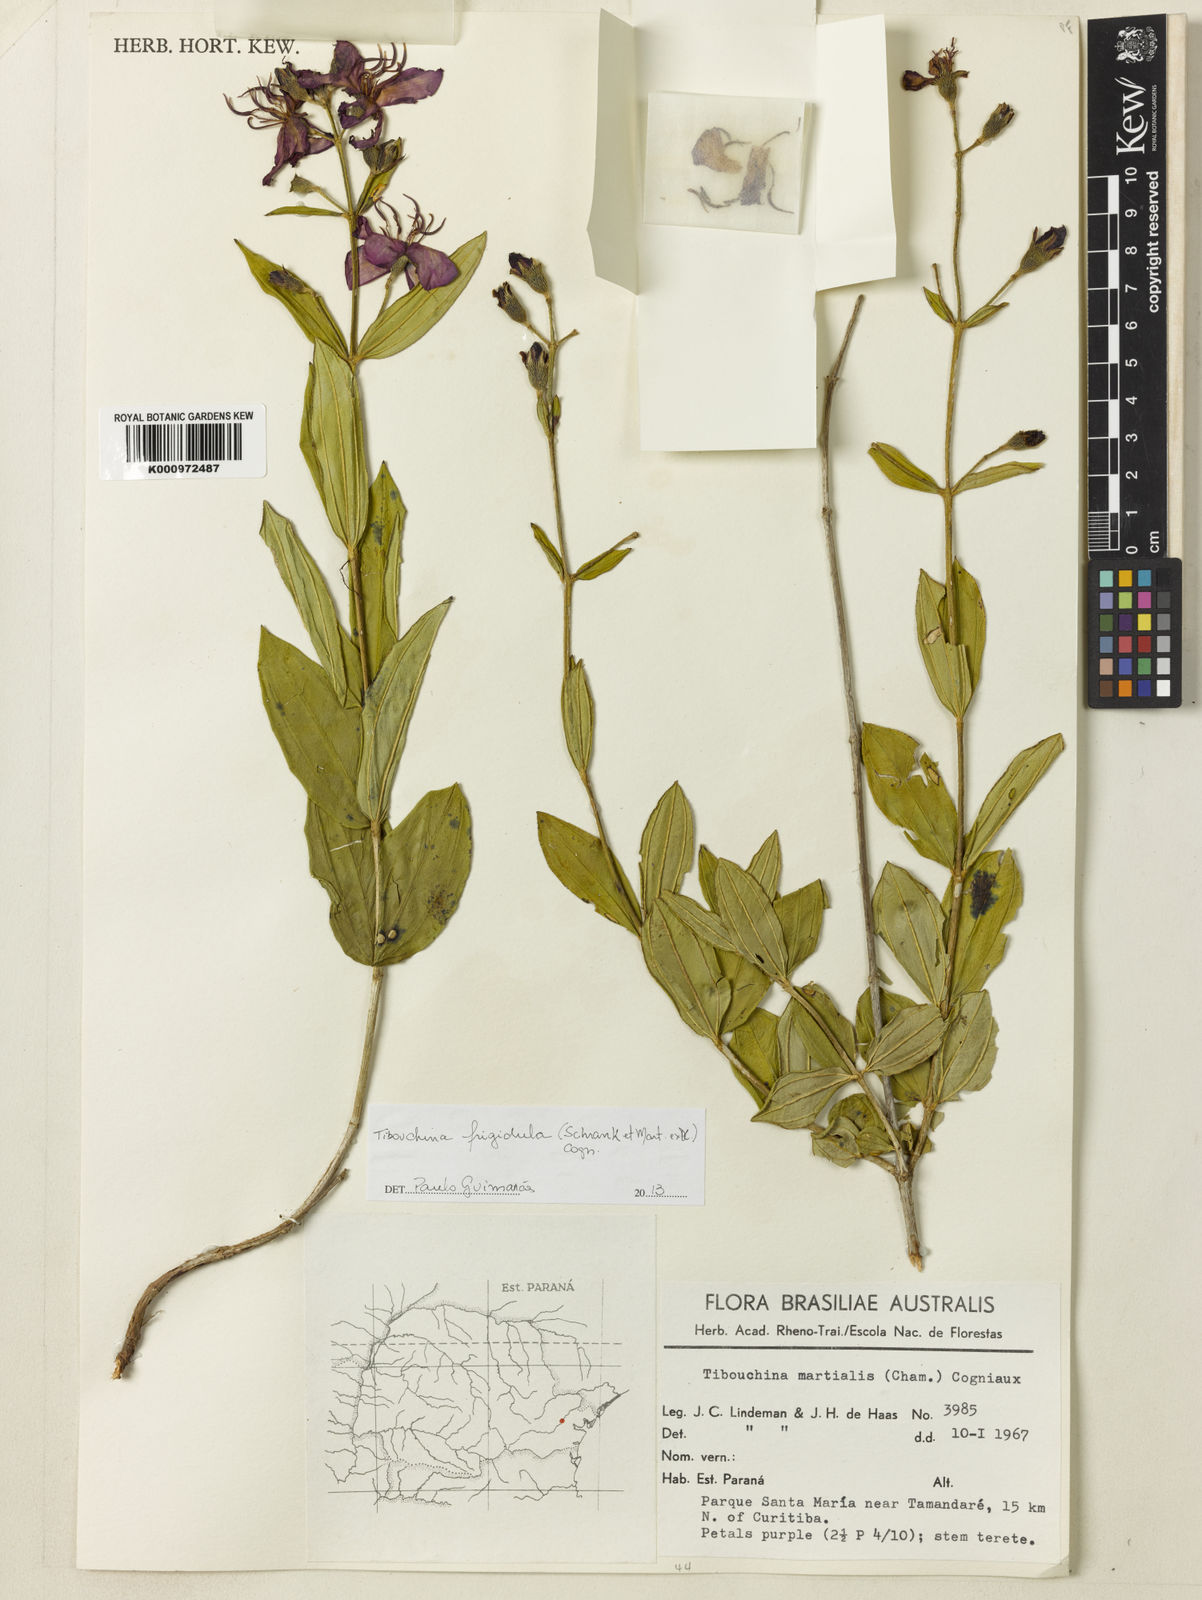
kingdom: Plantae
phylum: Tracheophyta
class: Magnoliopsida
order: Myrtales
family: Melastomataceae
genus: Pleroma
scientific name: Pleroma martiusianum
